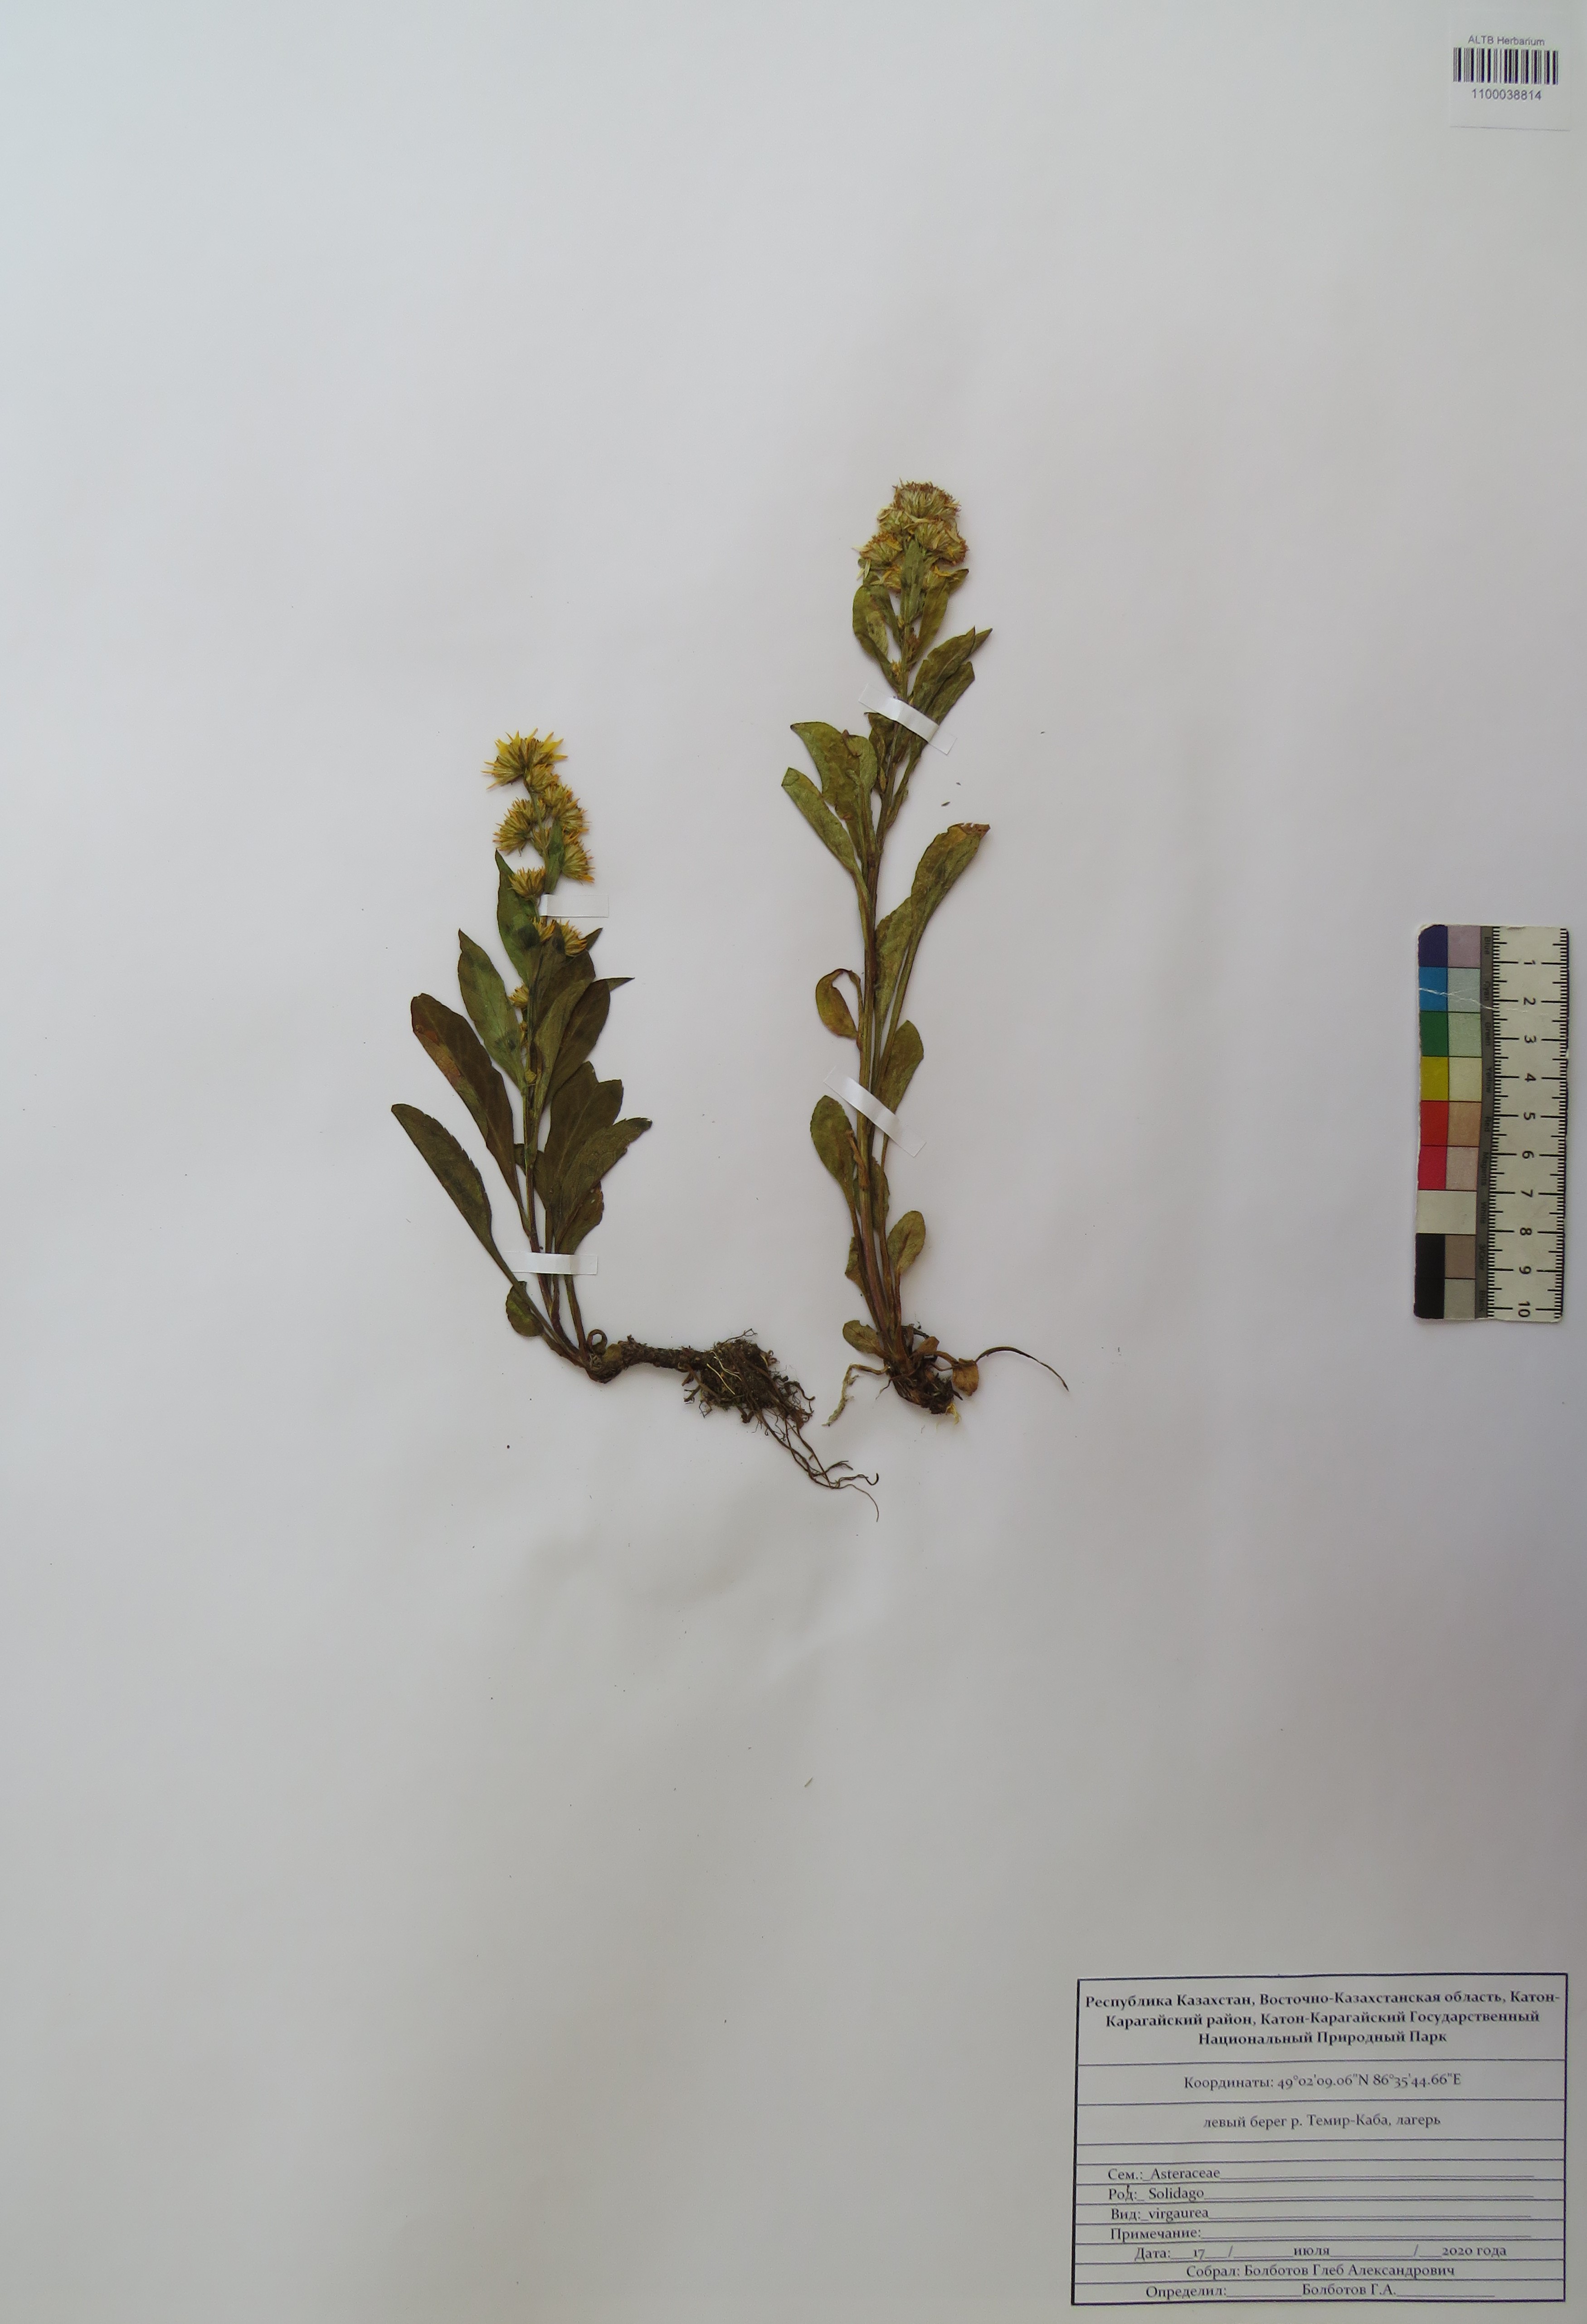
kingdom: Plantae
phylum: Tracheophyta
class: Magnoliopsida
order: Asterales
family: Asteraceae
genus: Solidago
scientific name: Solidago virgaurea
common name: Goldenrod
